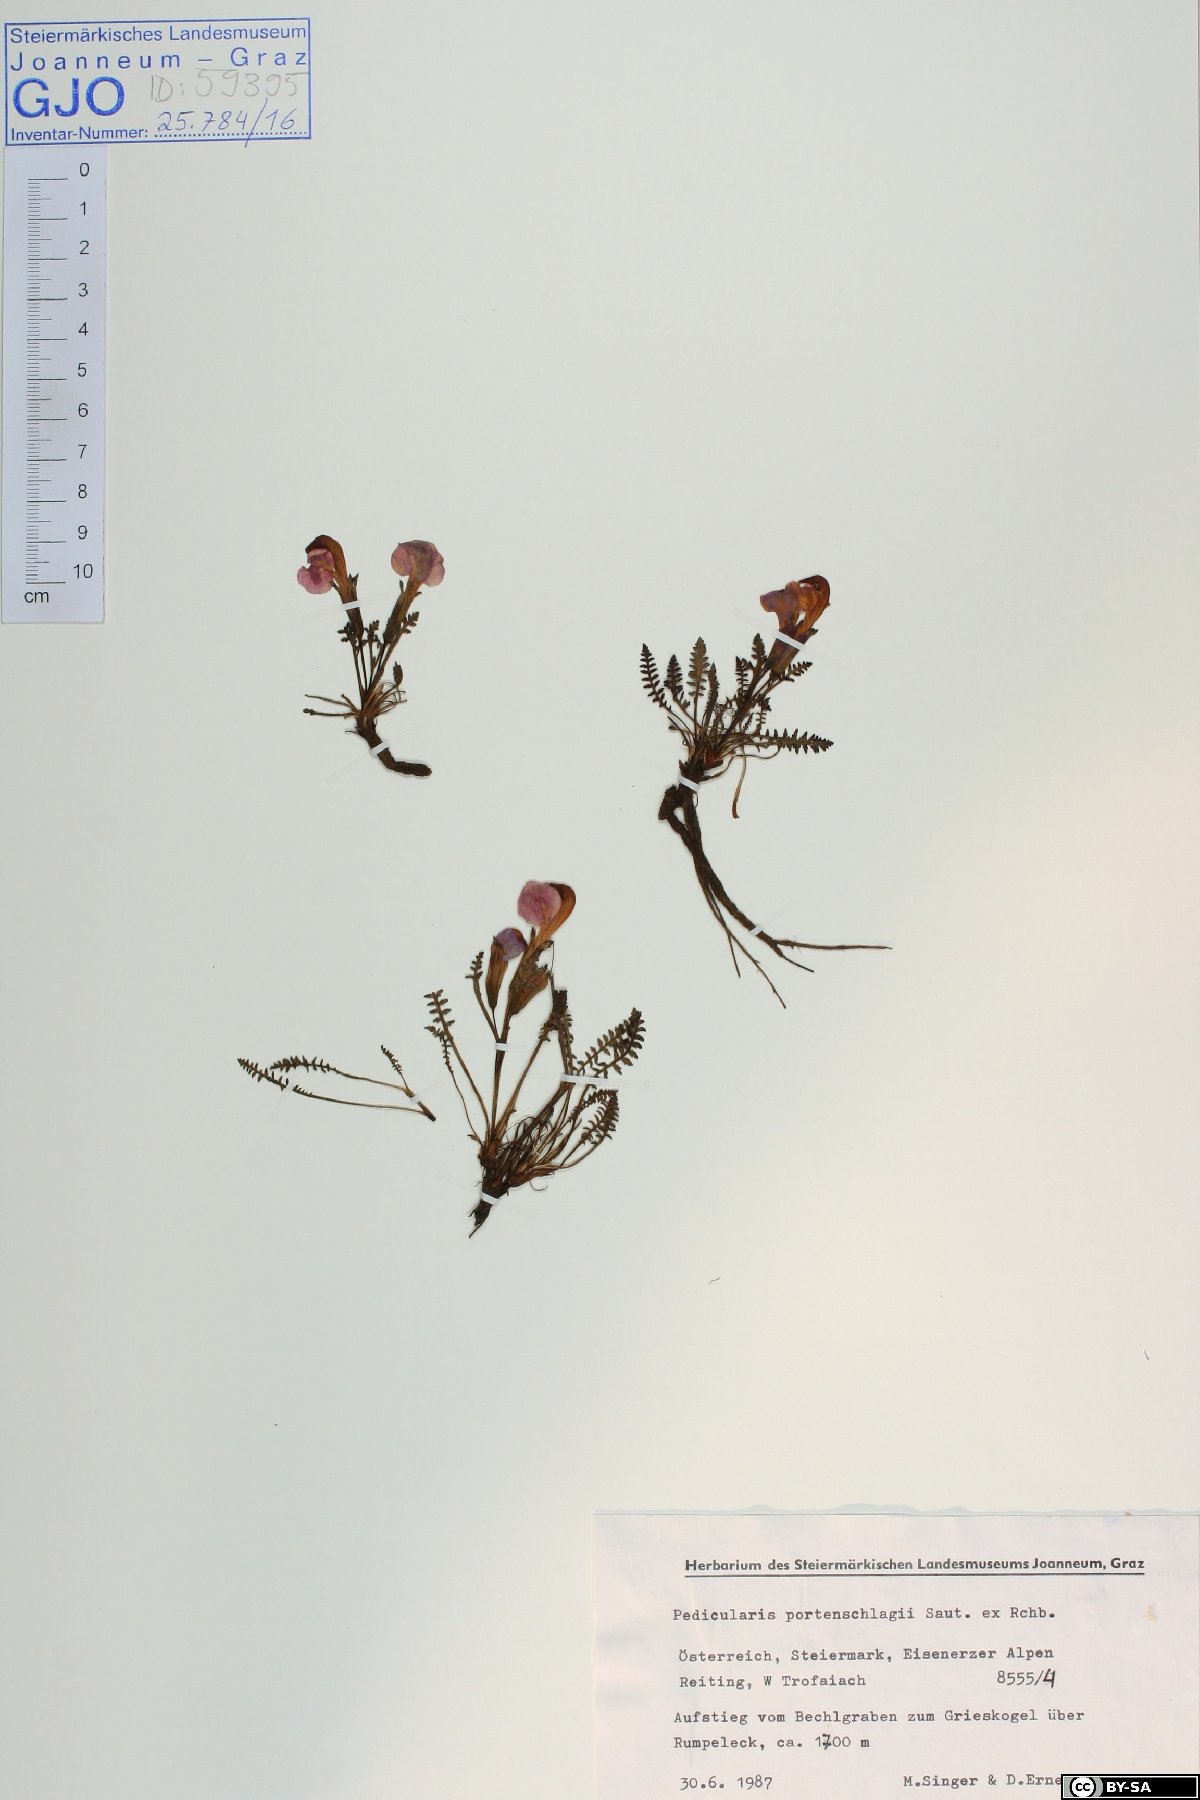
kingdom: Plantae
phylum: Tracheophyta
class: Magnoliopsida
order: Lamiales
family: Orobanchaceae
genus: Pedicularis
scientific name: Pedicularis portenschlagii
